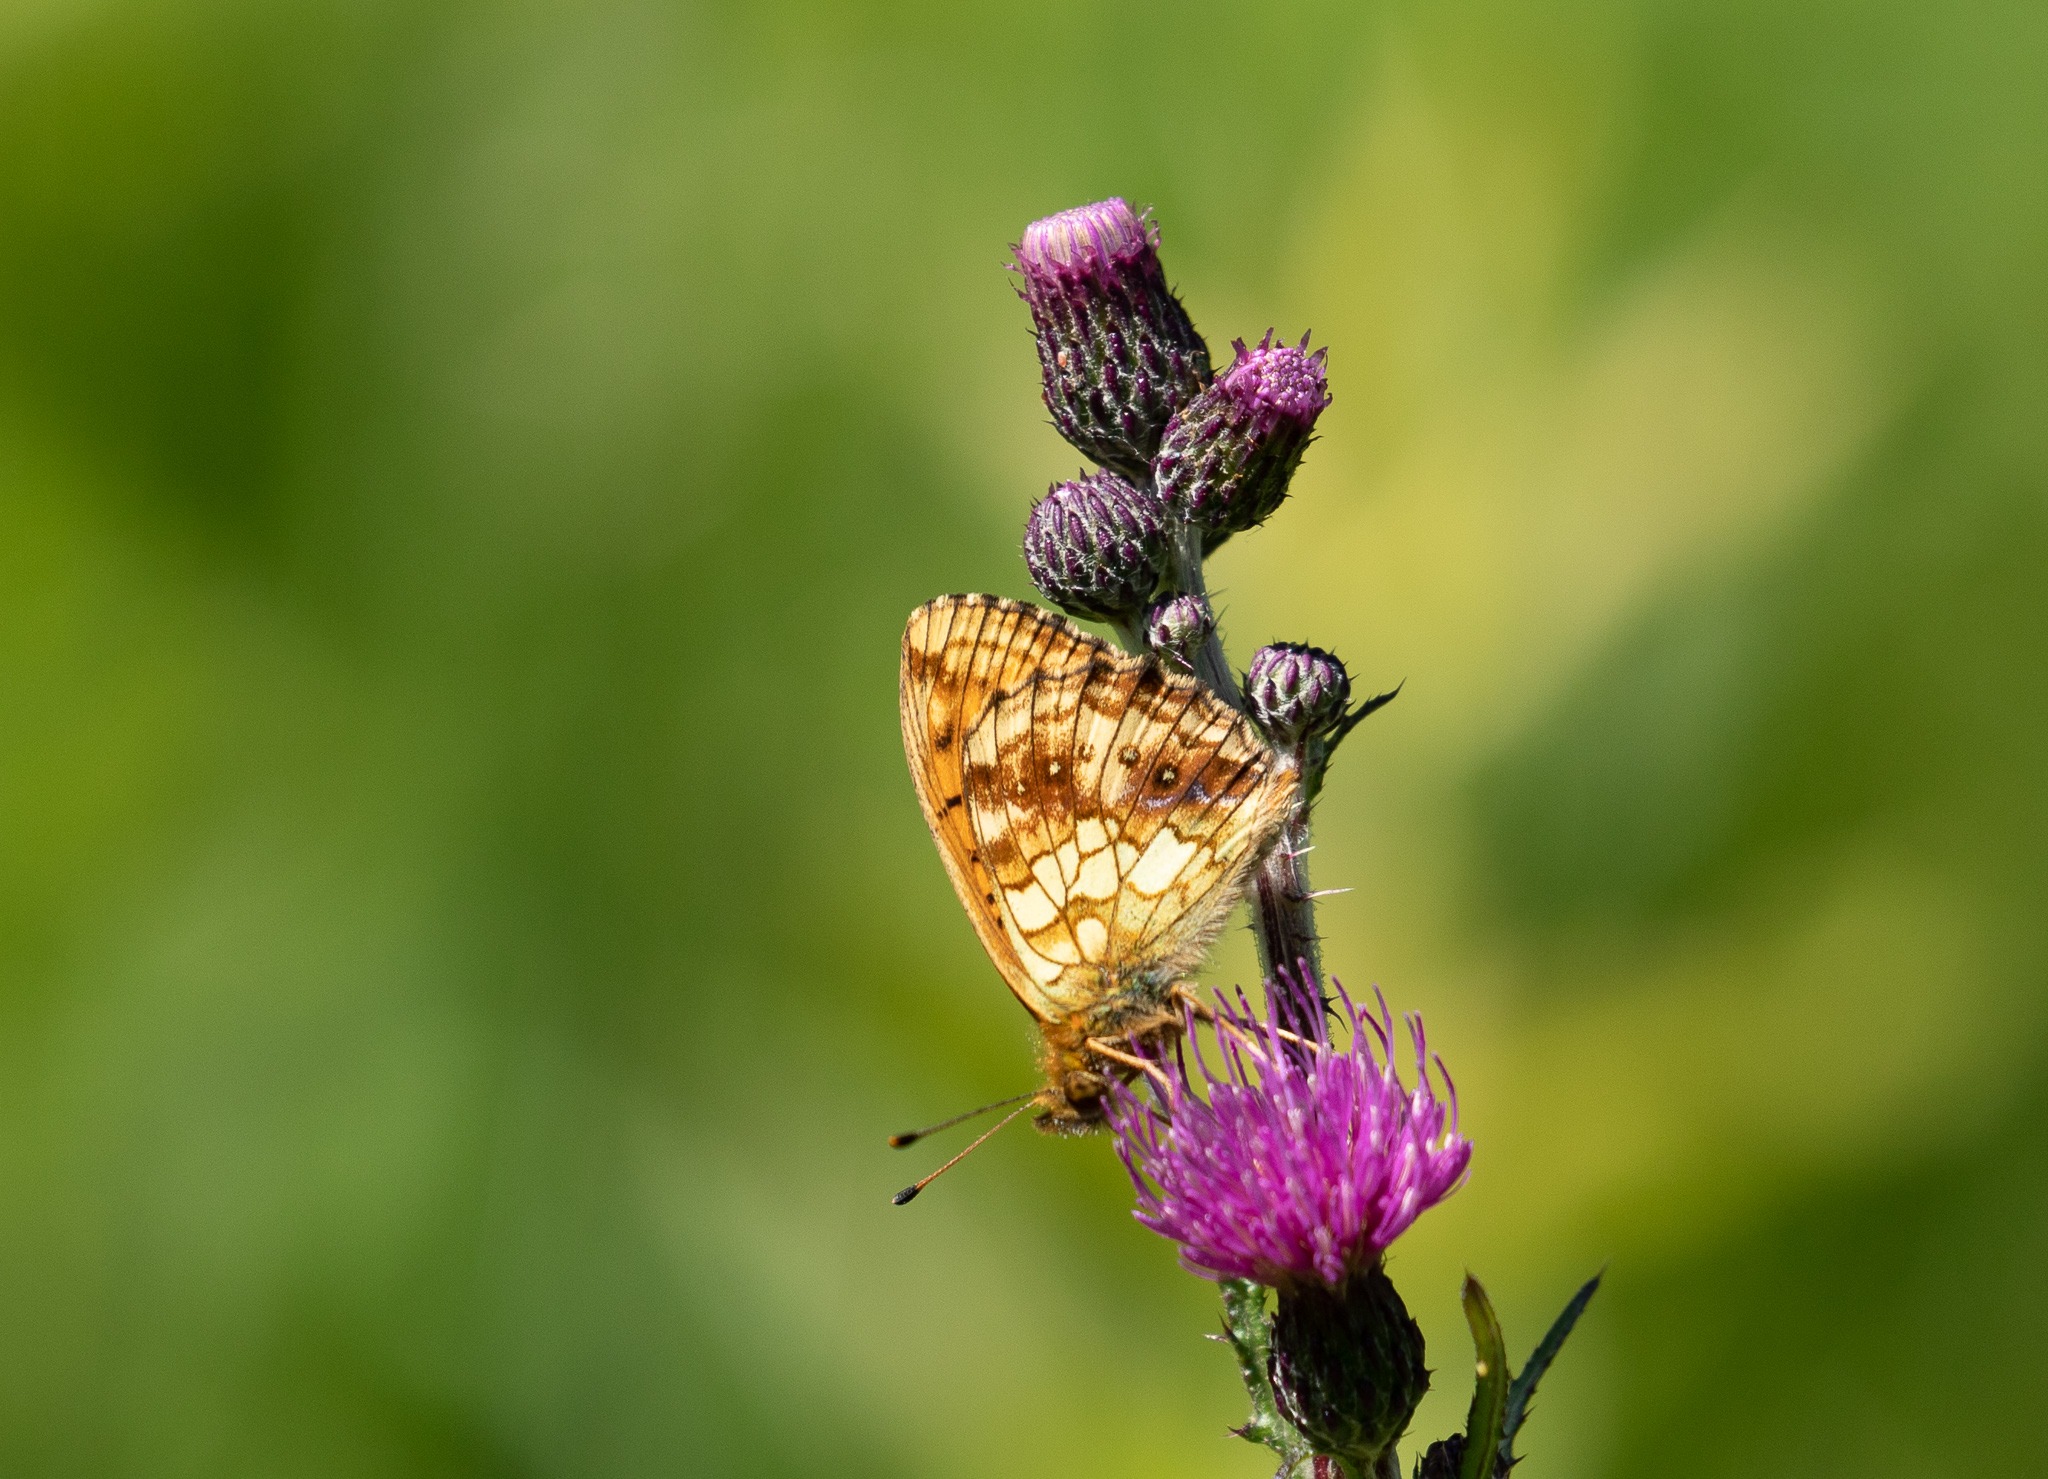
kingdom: Animalia
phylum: Arthropoda
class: Insecta
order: Lepidoptera
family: Nymphalidae
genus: Brenthis
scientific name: Brenthis ino
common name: Engperlemorsommerfugl
